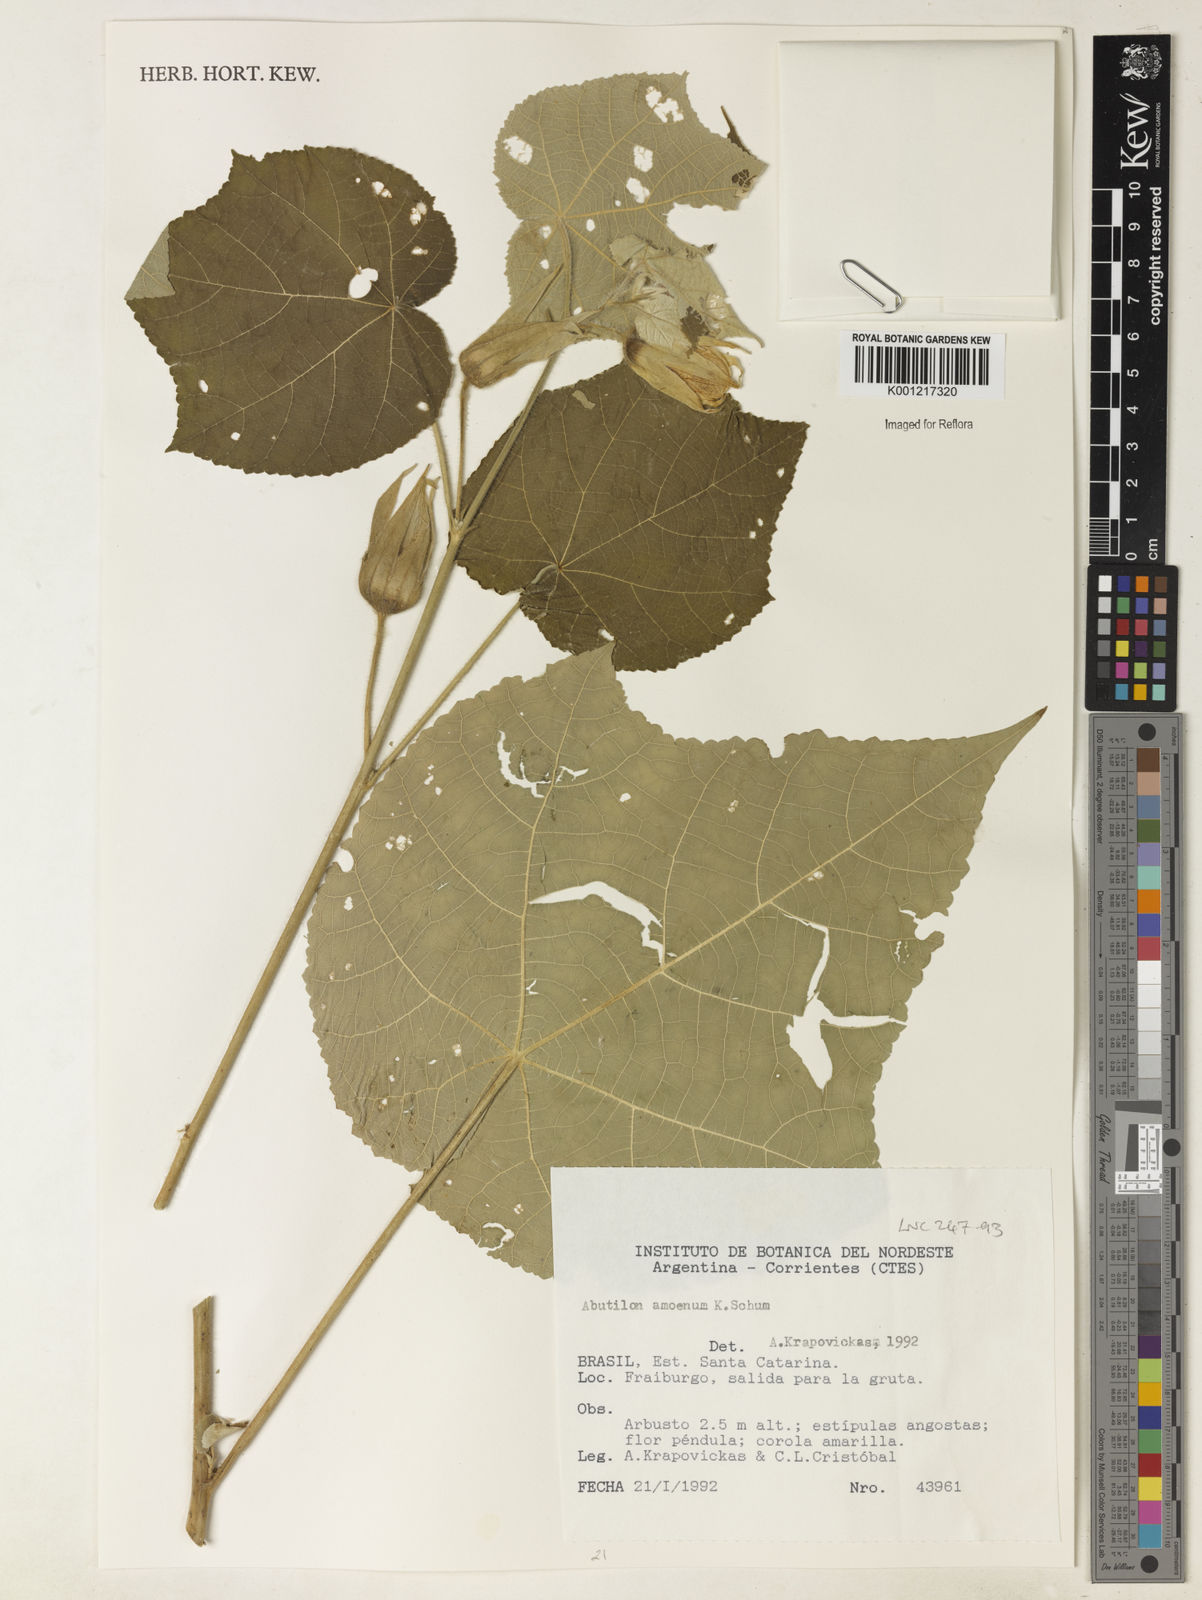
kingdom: Plantae
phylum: Tracheophyta
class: Magnoliopsida
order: Malvales
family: Malvaceae
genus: Callianthe
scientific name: Callianthe amoena
